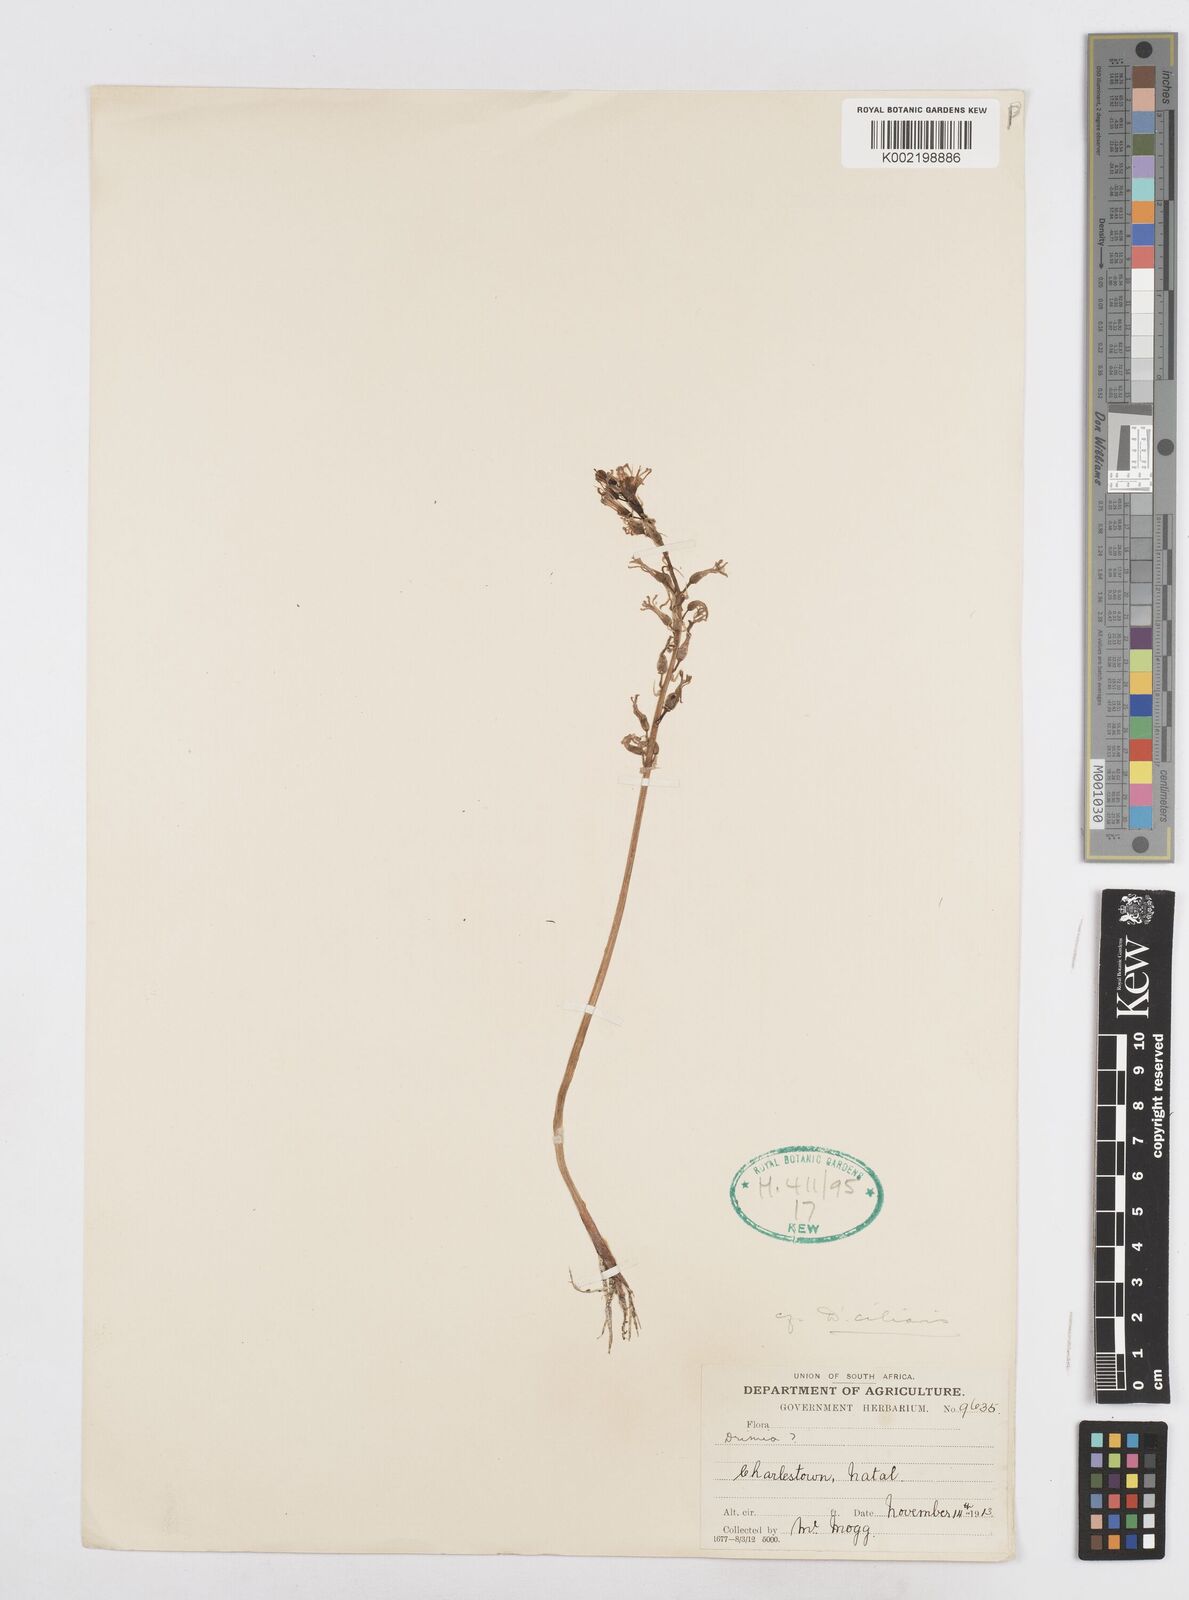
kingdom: Plantae
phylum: Tracheophyta
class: Liliopsida
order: Asparagales
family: Asparagaceae
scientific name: Asparagaceae
